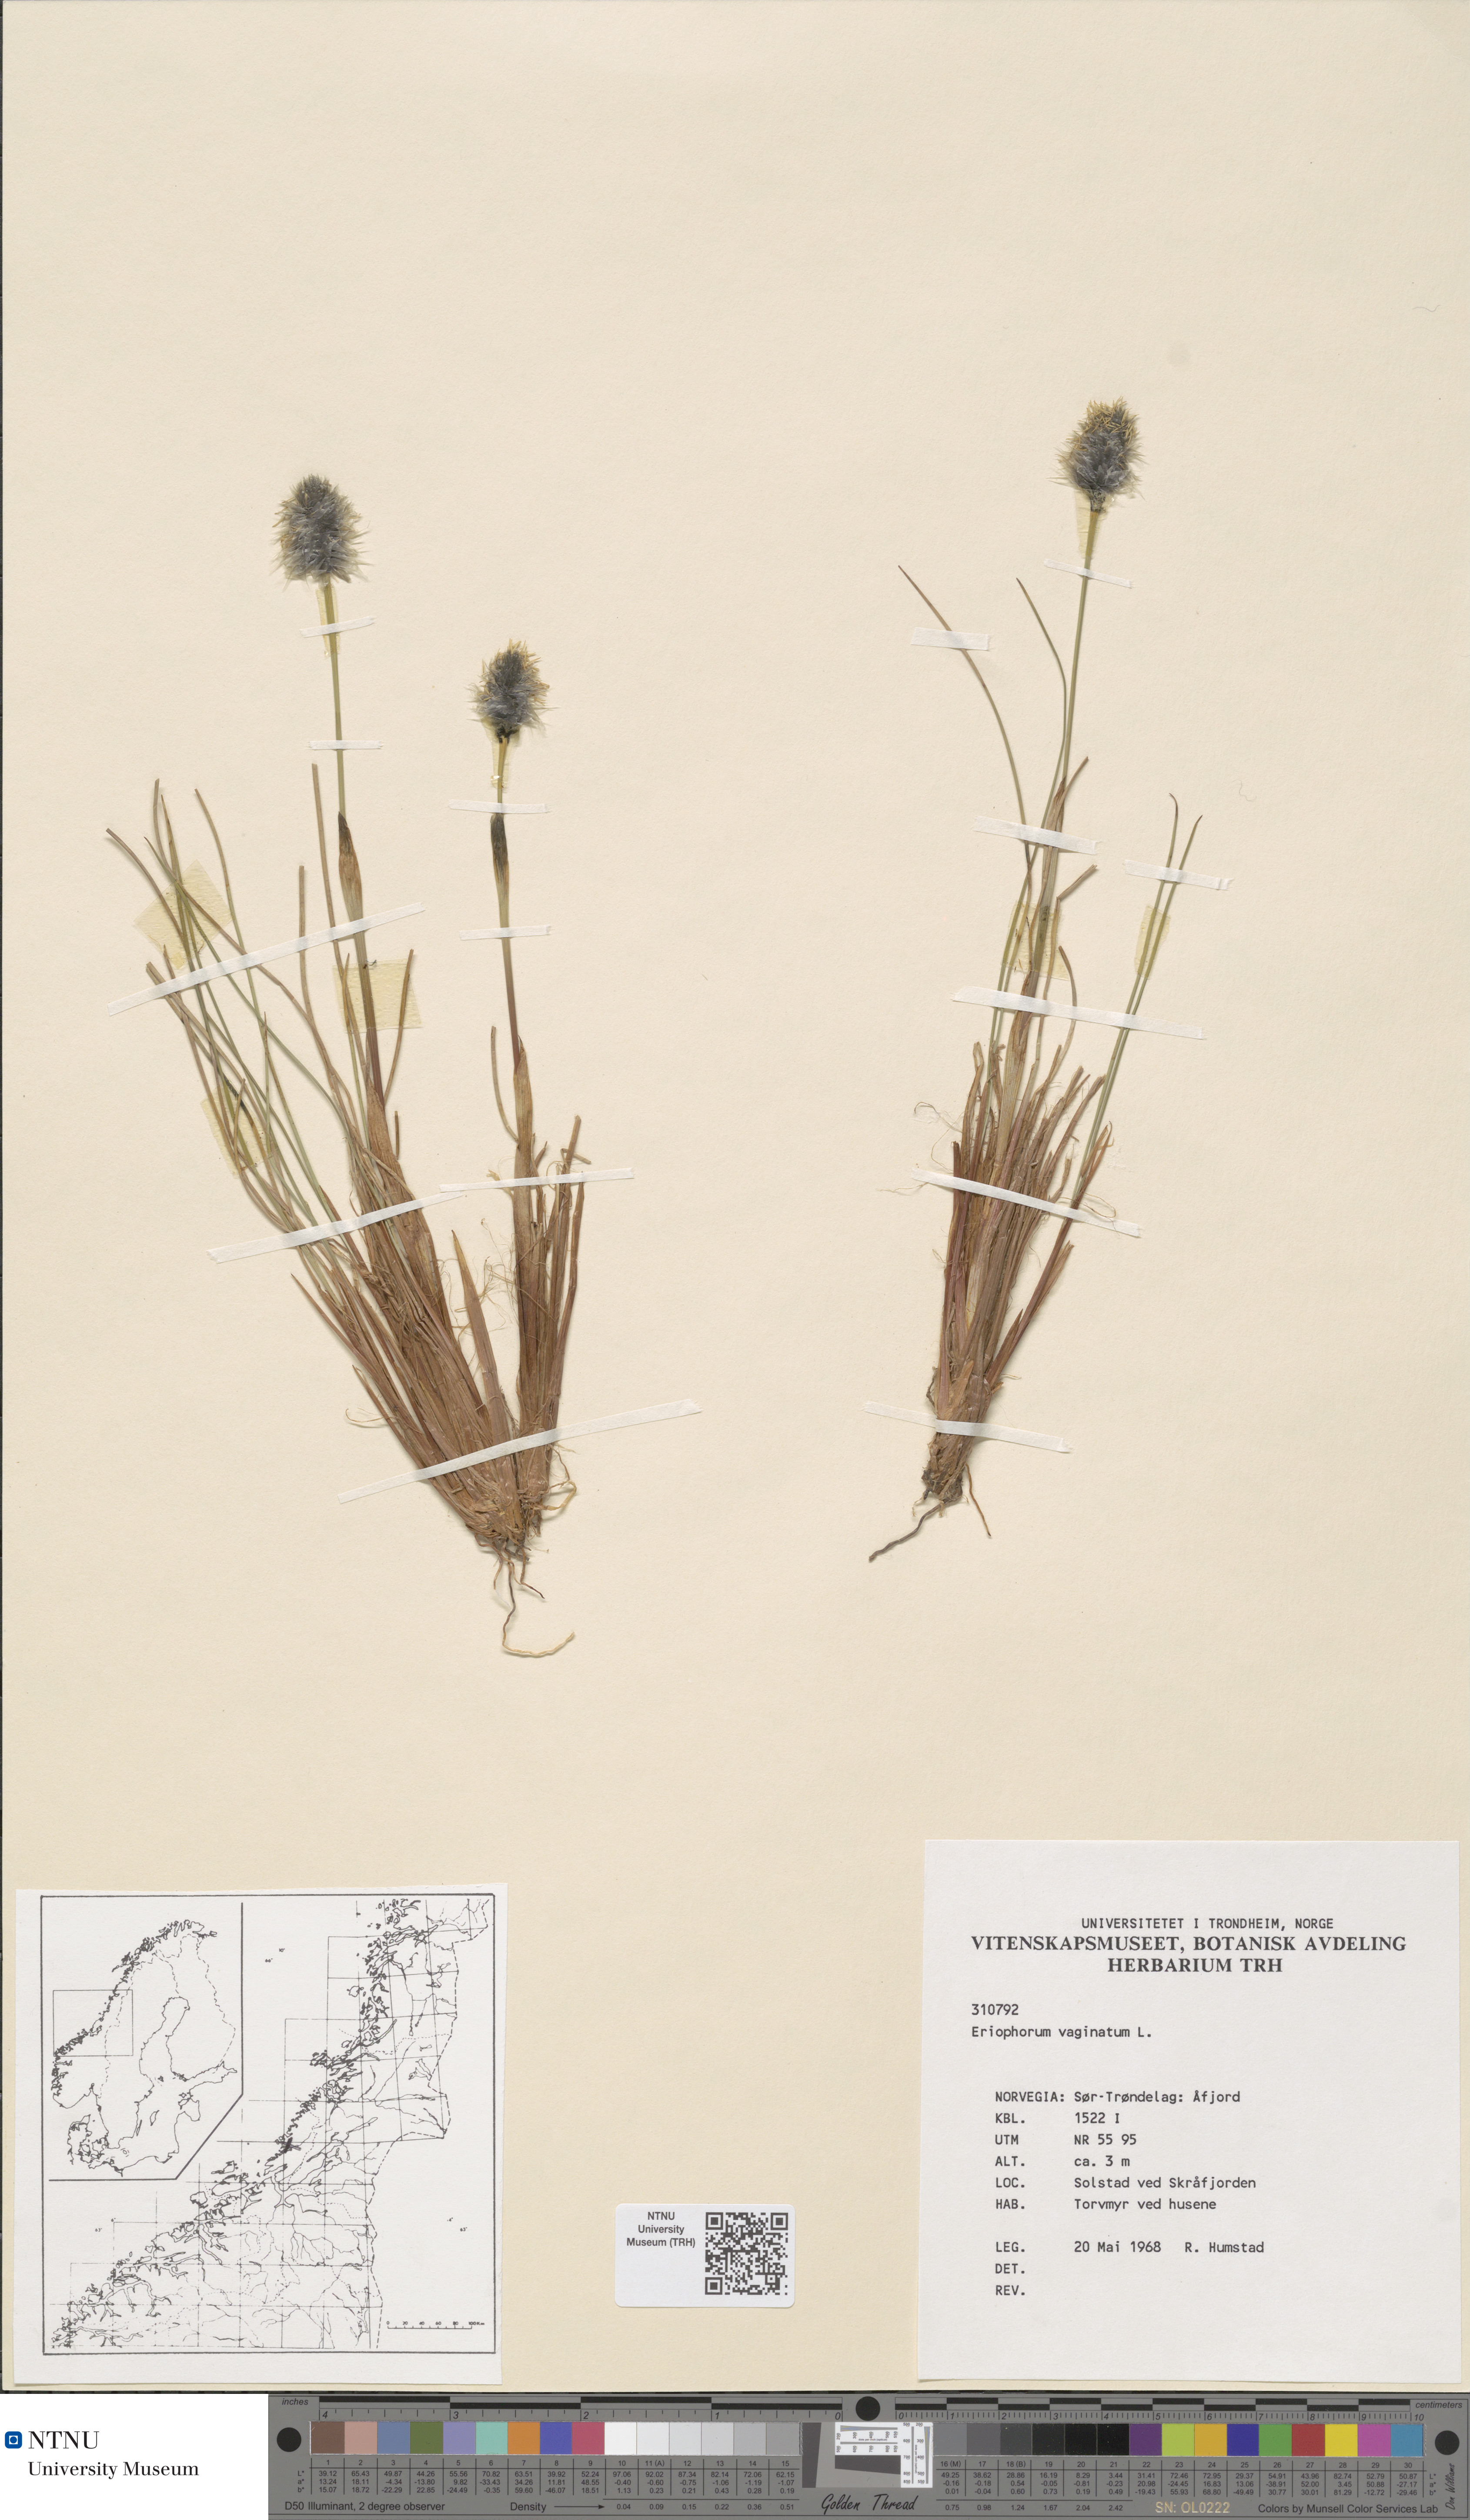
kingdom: Plantae
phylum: Tracheophyta
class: Liliopsida
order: Poales
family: Cyperaceae
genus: Eriophorum
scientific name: Eriophorum vaginatum
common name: Hare's-tail cottongrass
